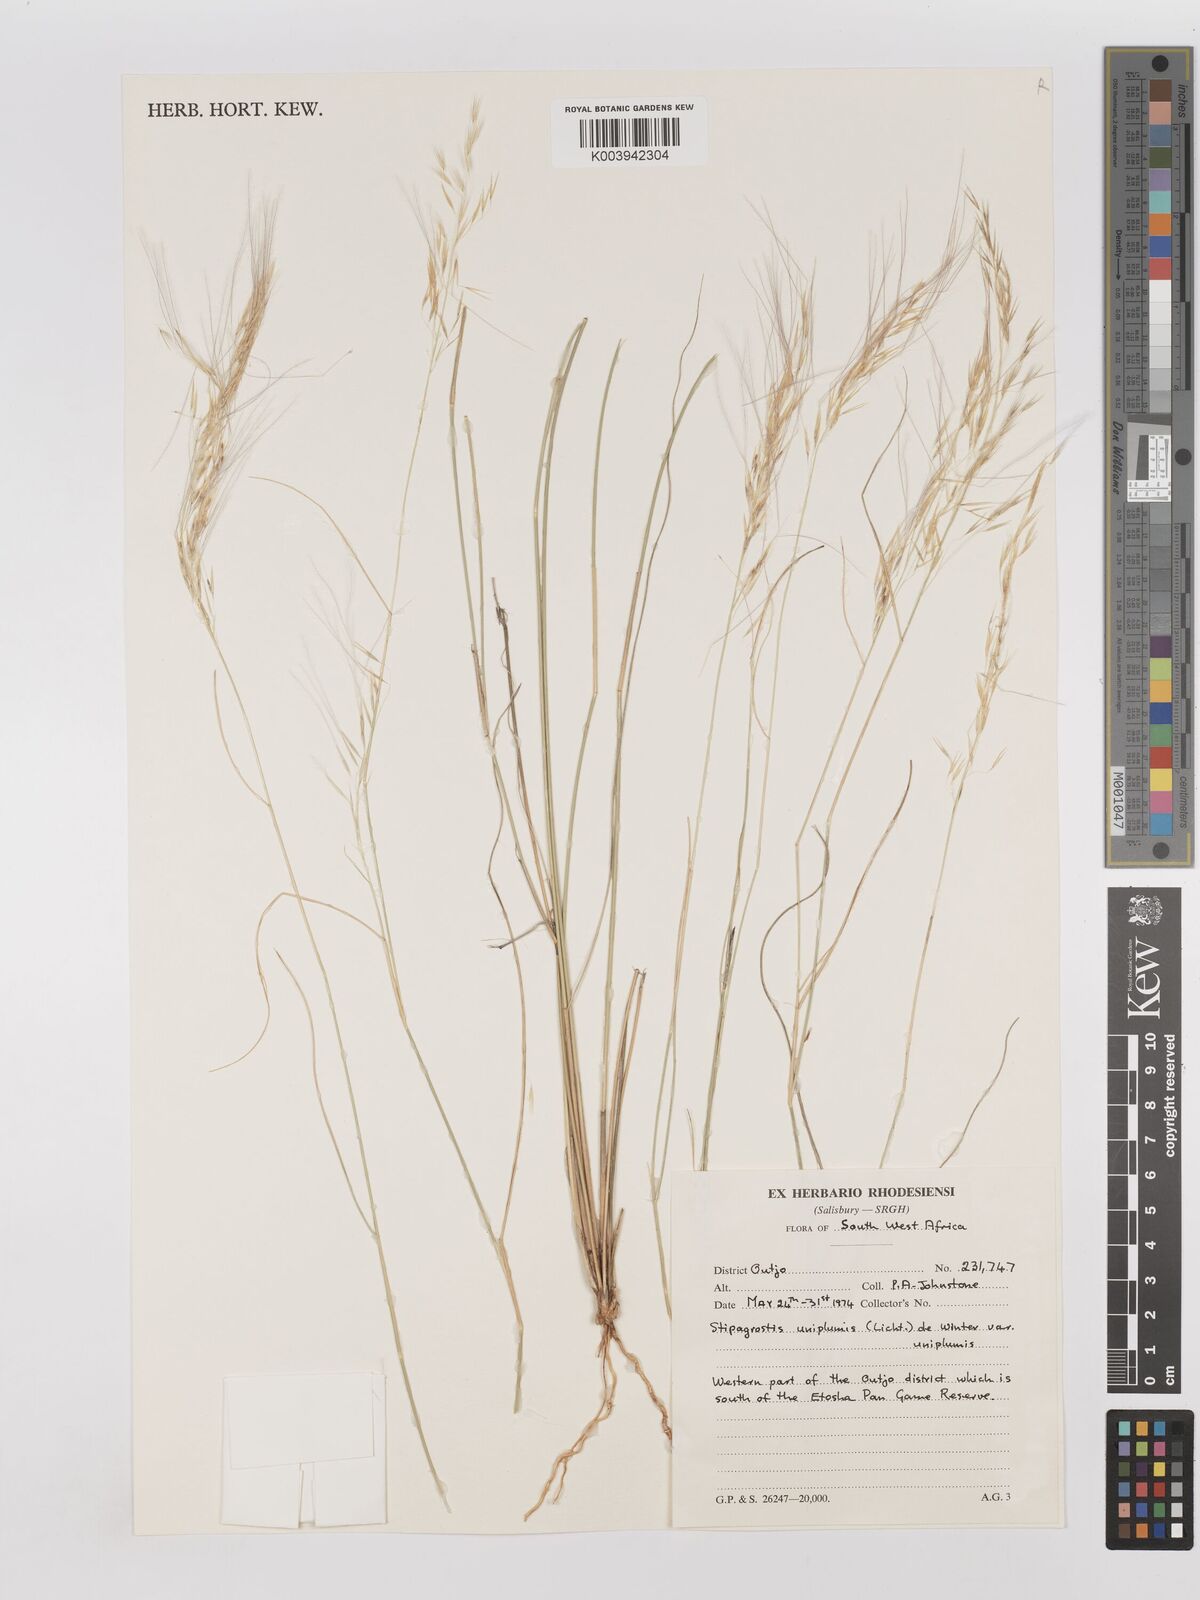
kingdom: Plantae
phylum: Tracheophyta
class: Liliopsida
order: Poales
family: Poaceae
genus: Stipagrostis
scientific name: Stipagrostis uniplumis
